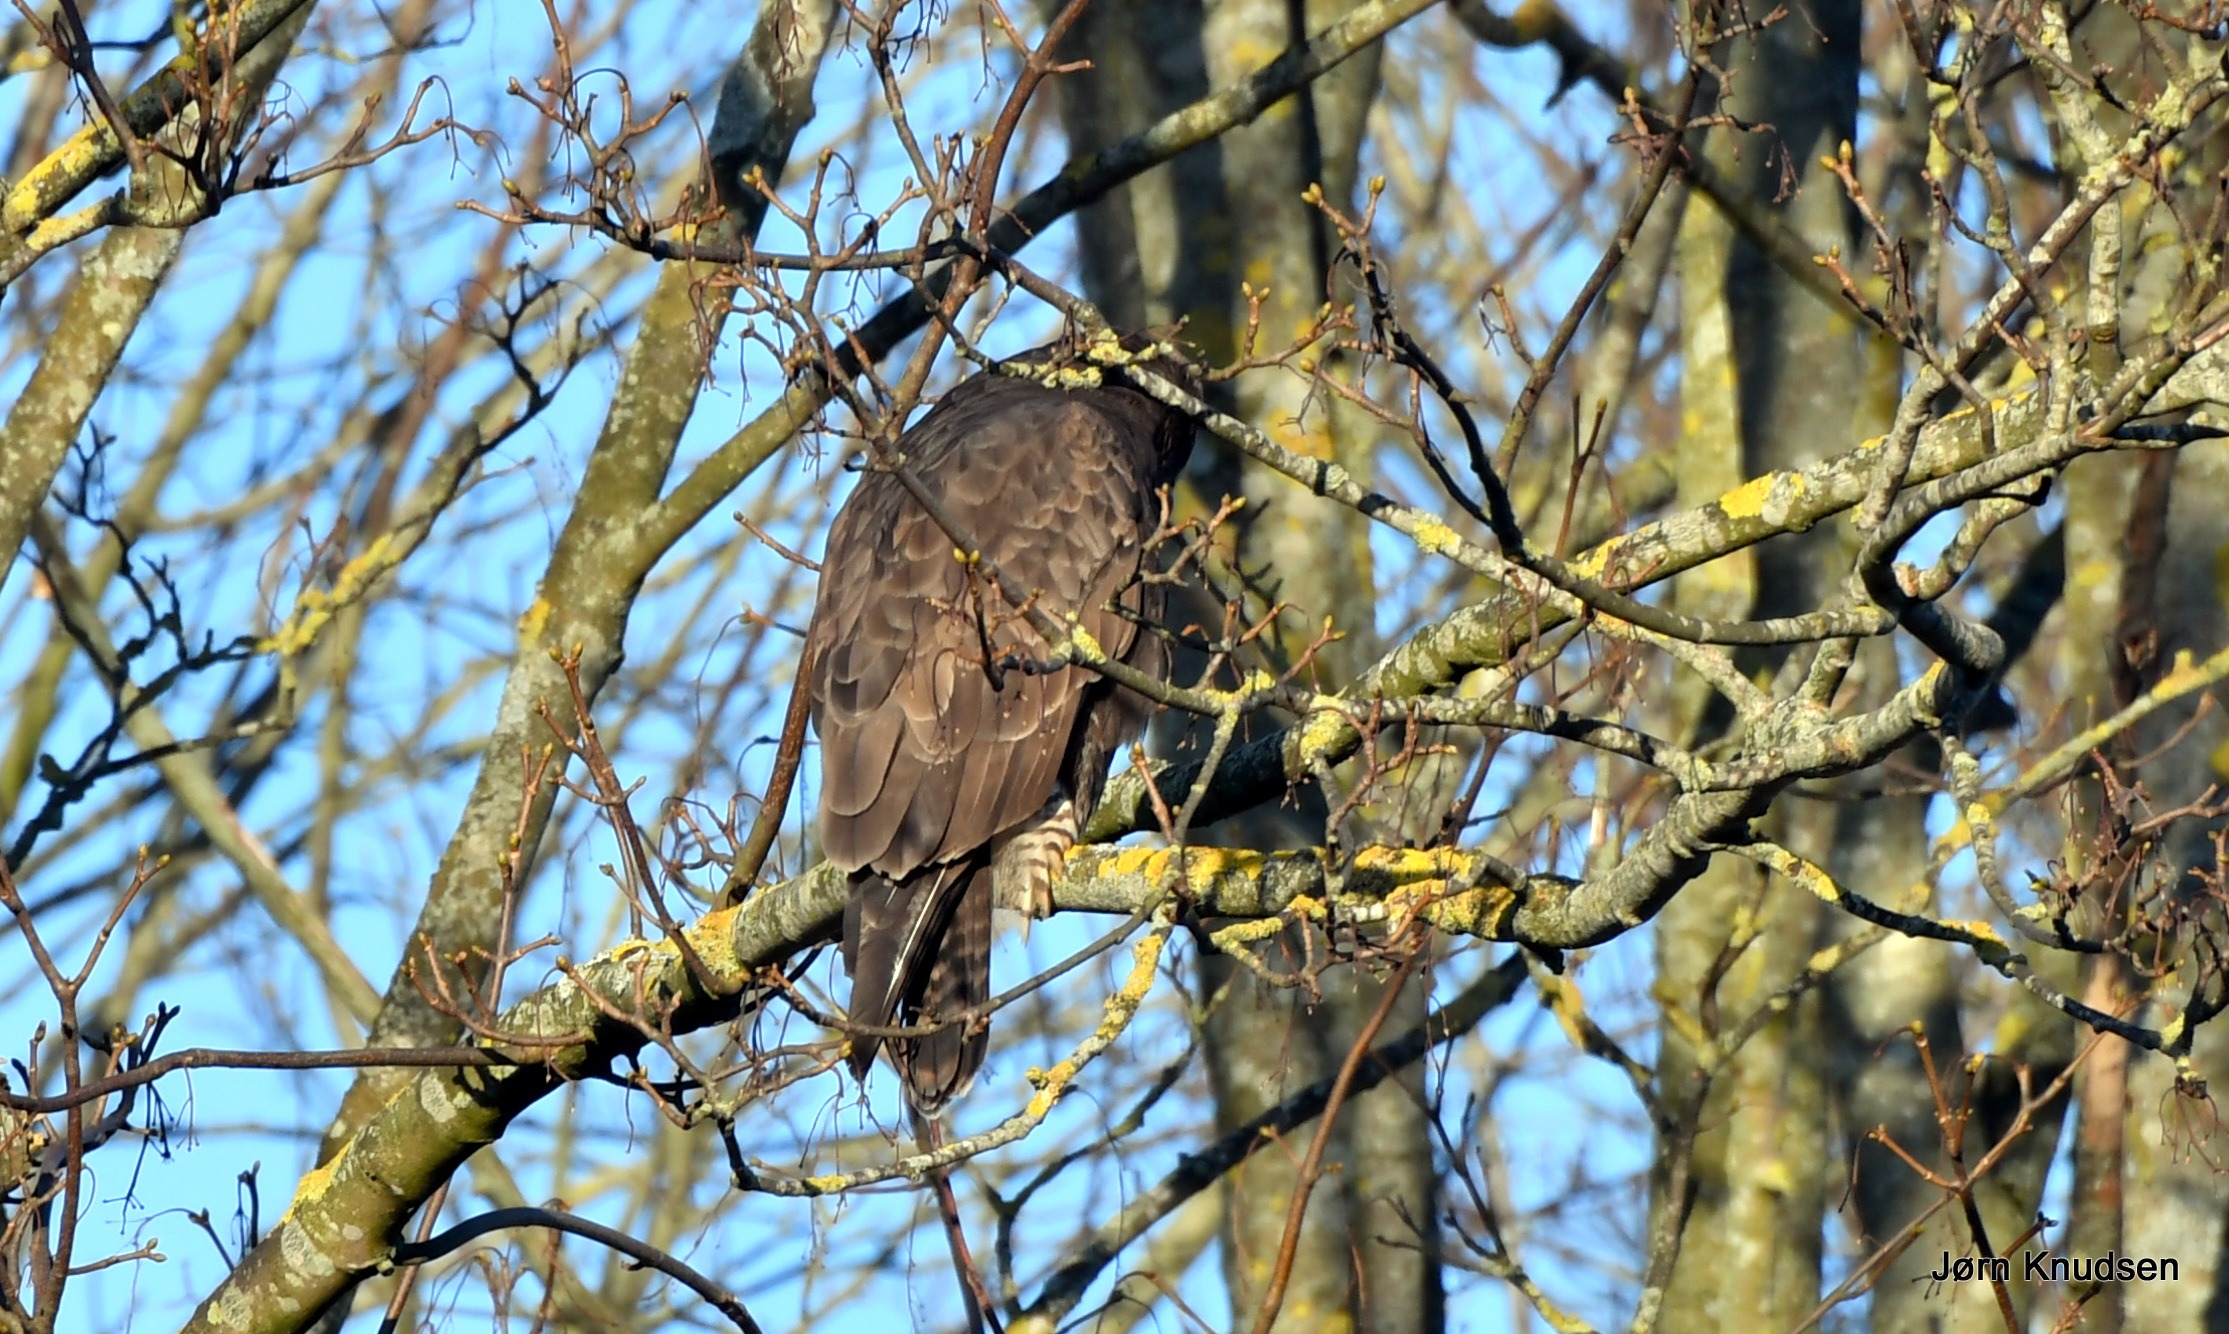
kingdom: Animalia
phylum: Chordata
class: Aves
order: Accipitriformes
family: Accipitridae
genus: Buteo
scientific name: Buteo buteo
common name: Musvåge
